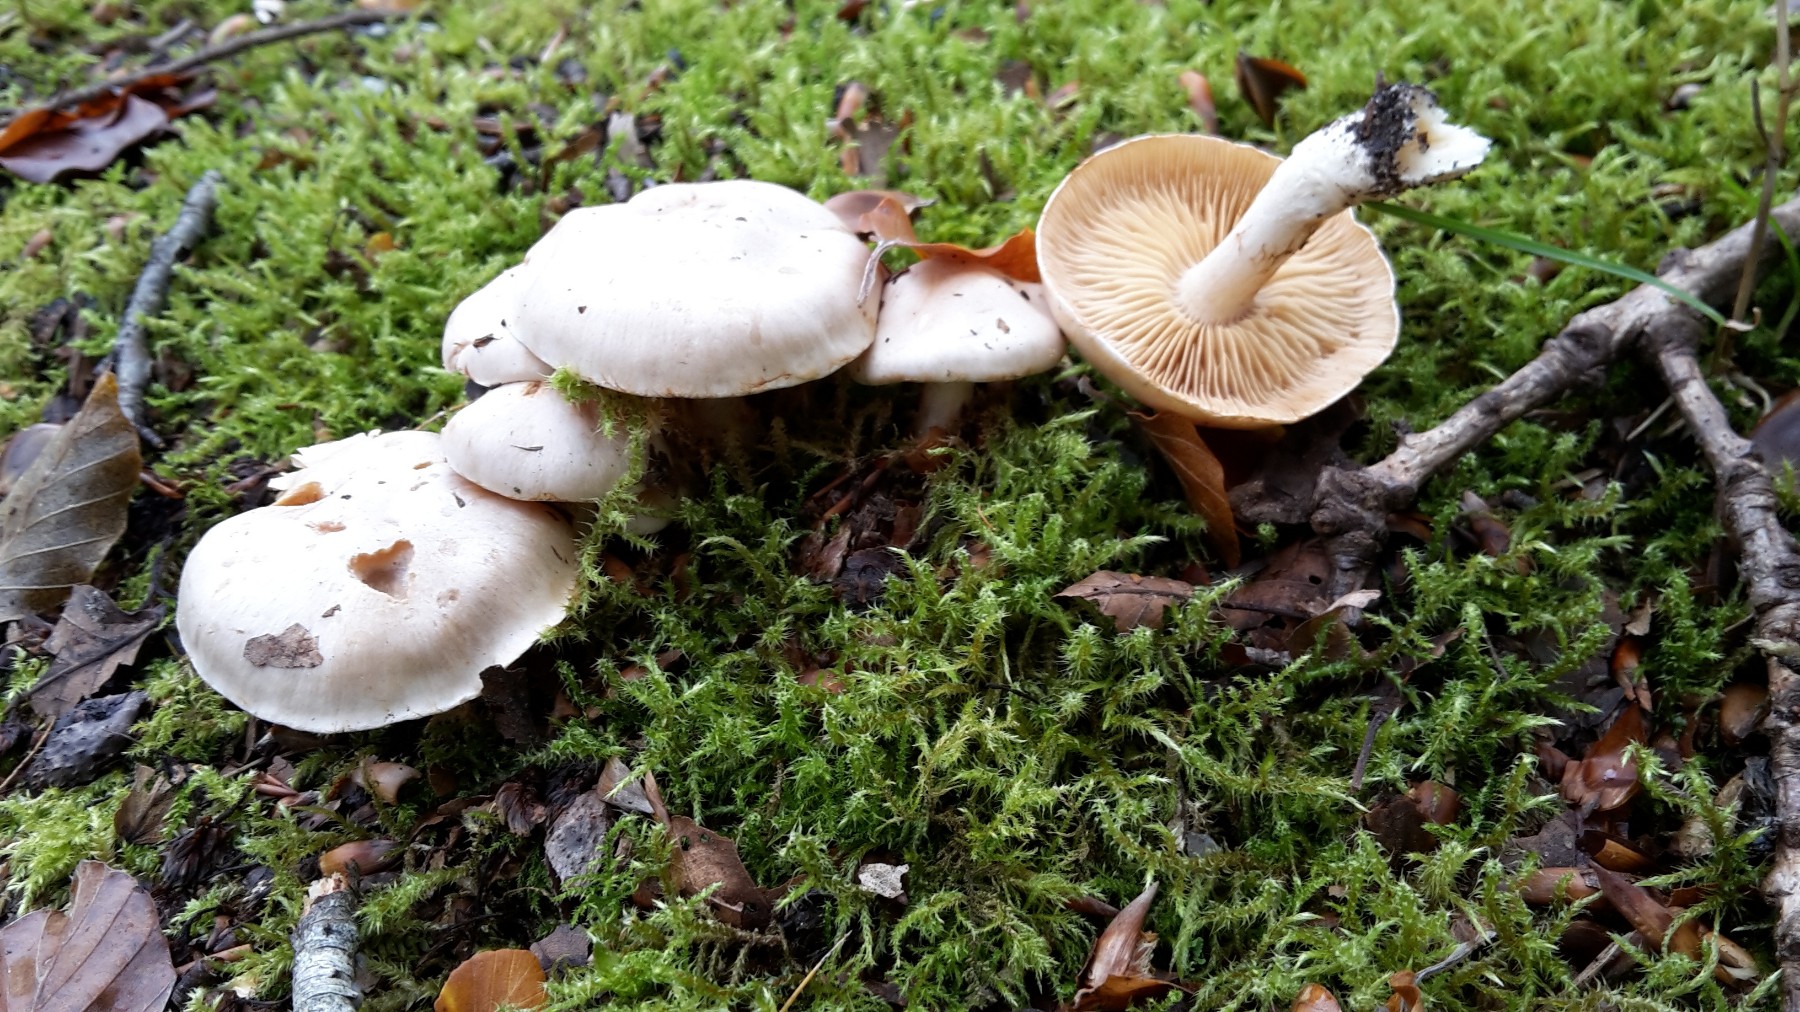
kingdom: Fungi
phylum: Basidiomycota
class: Agaricomycetes
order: Agaricales
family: Cortinariaceae
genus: Thaxterogaster
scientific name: Thaxterogaster leucoluteolus
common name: isabella slørhat
